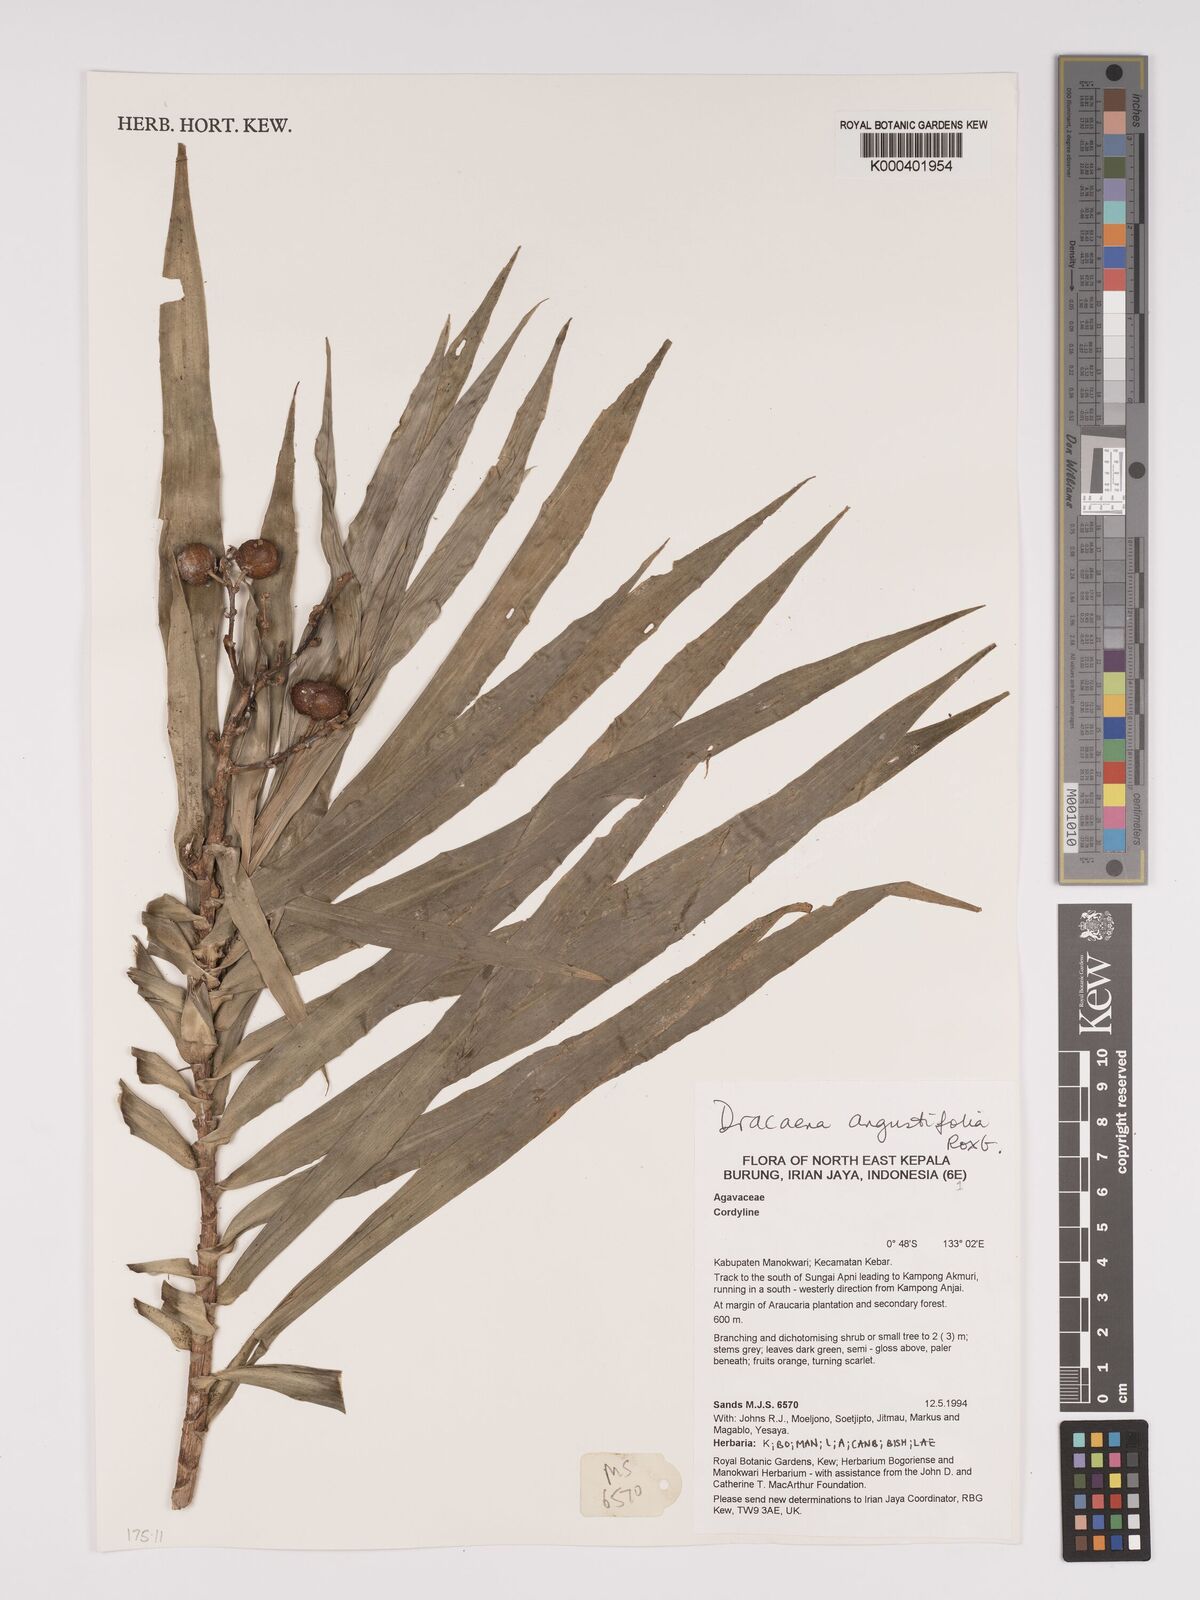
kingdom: Plantae
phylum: Tracheophyta
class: Liliopsida
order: Asparagales
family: Asparagaceae
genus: Dracaena
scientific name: Dracaena angustifolia
